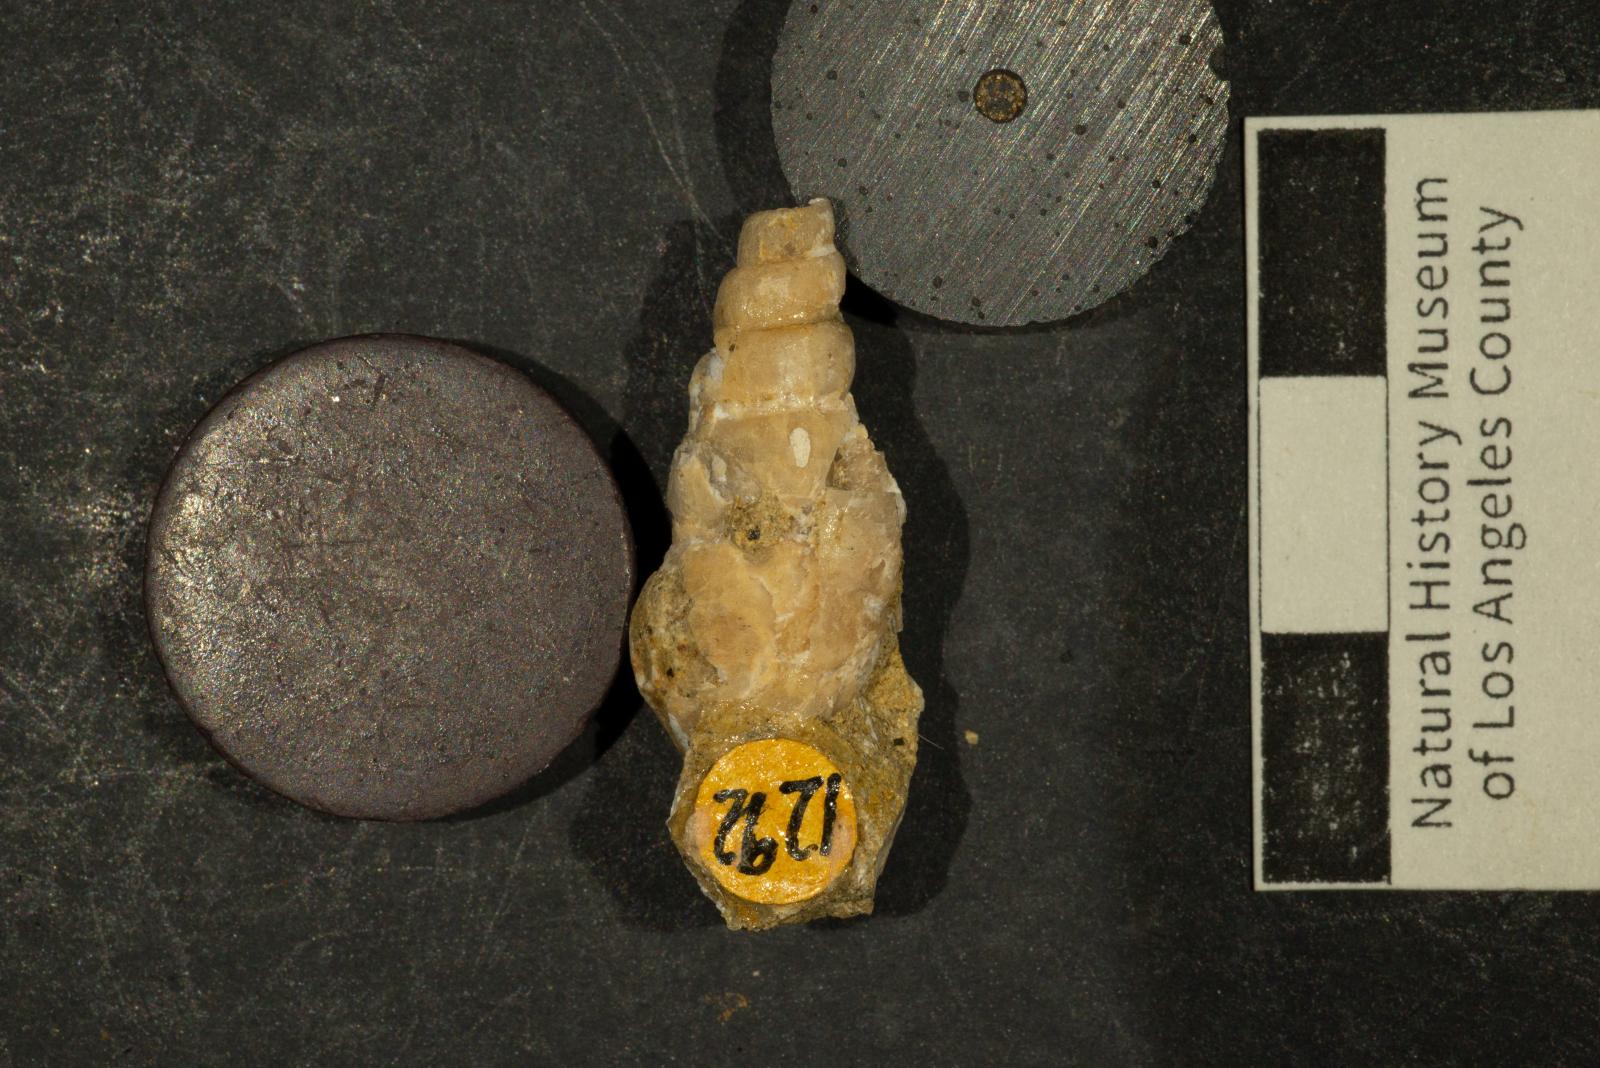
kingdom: Animalia
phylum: Mollusca
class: Gastropoda
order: Littorinimorpha
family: Aporrhaidae
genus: Alarimella
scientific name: Alarimella veta
